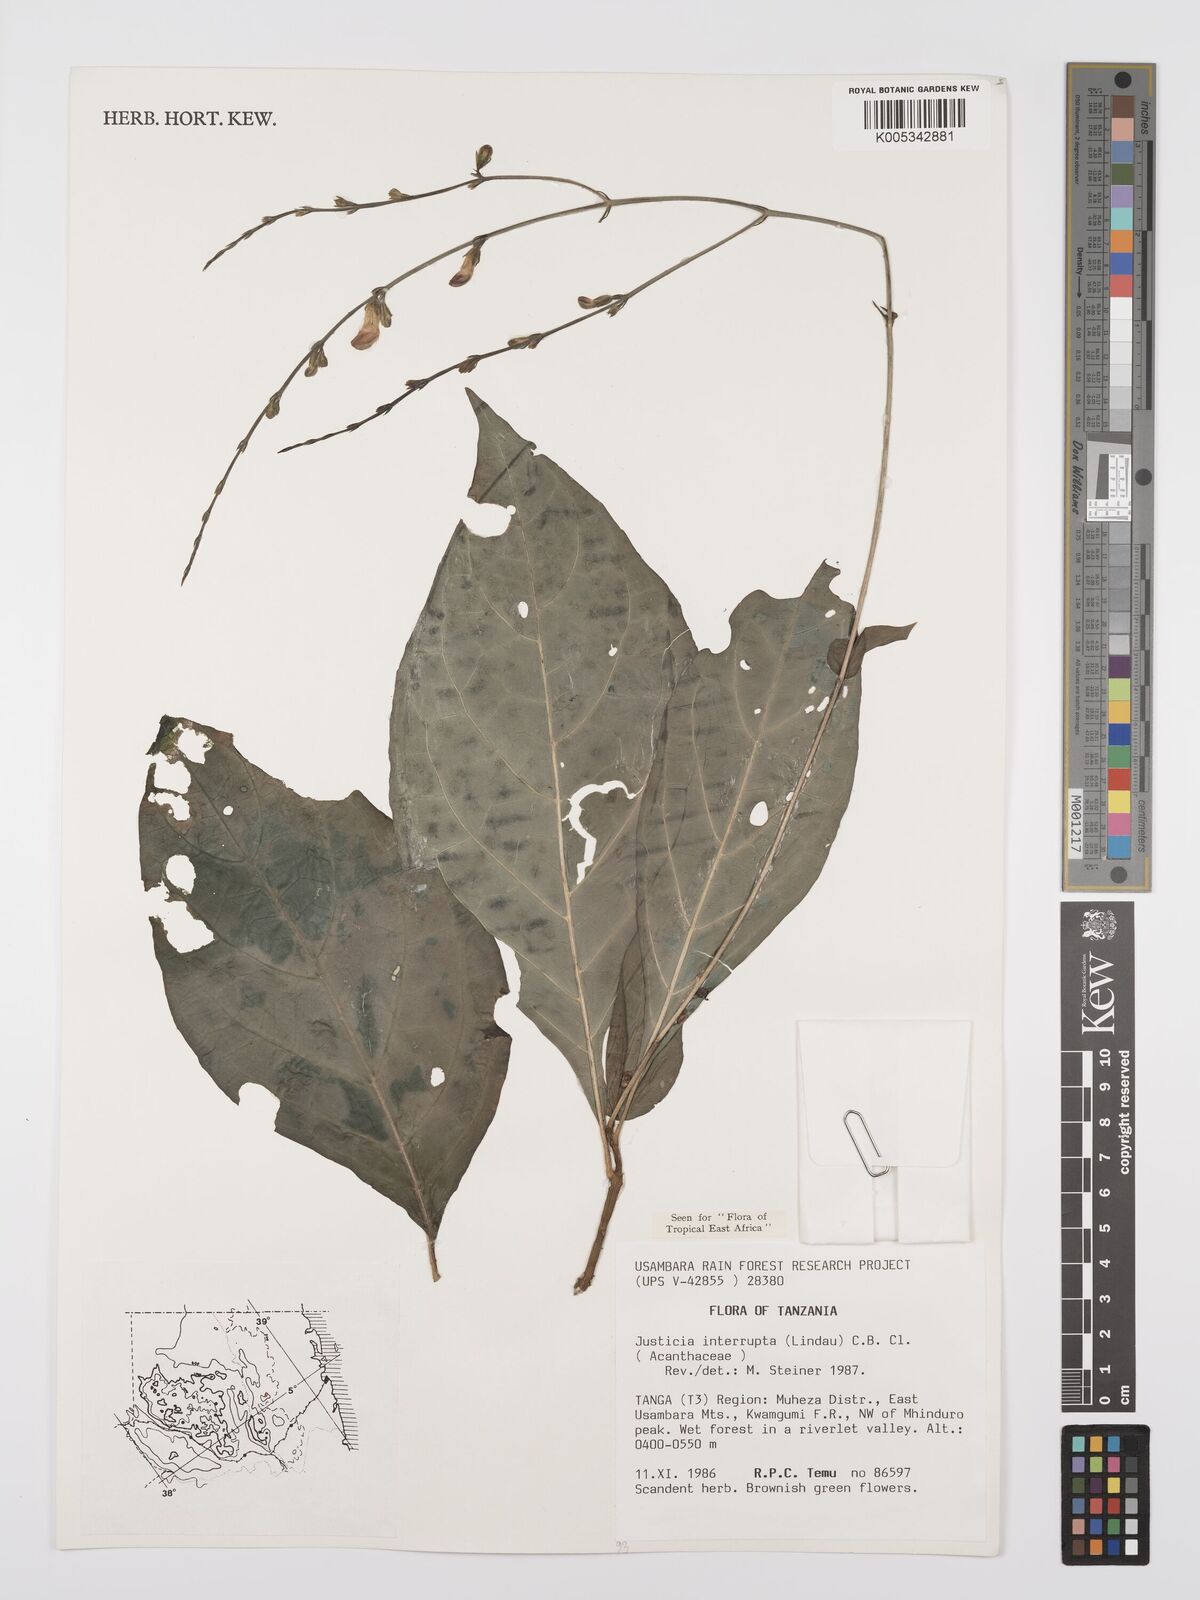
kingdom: Plantae
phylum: Tracheophyta
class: Magnoliopsida
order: Lamiales
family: Acanthaceae
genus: Justicia
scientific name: Justicia plectranthoides
